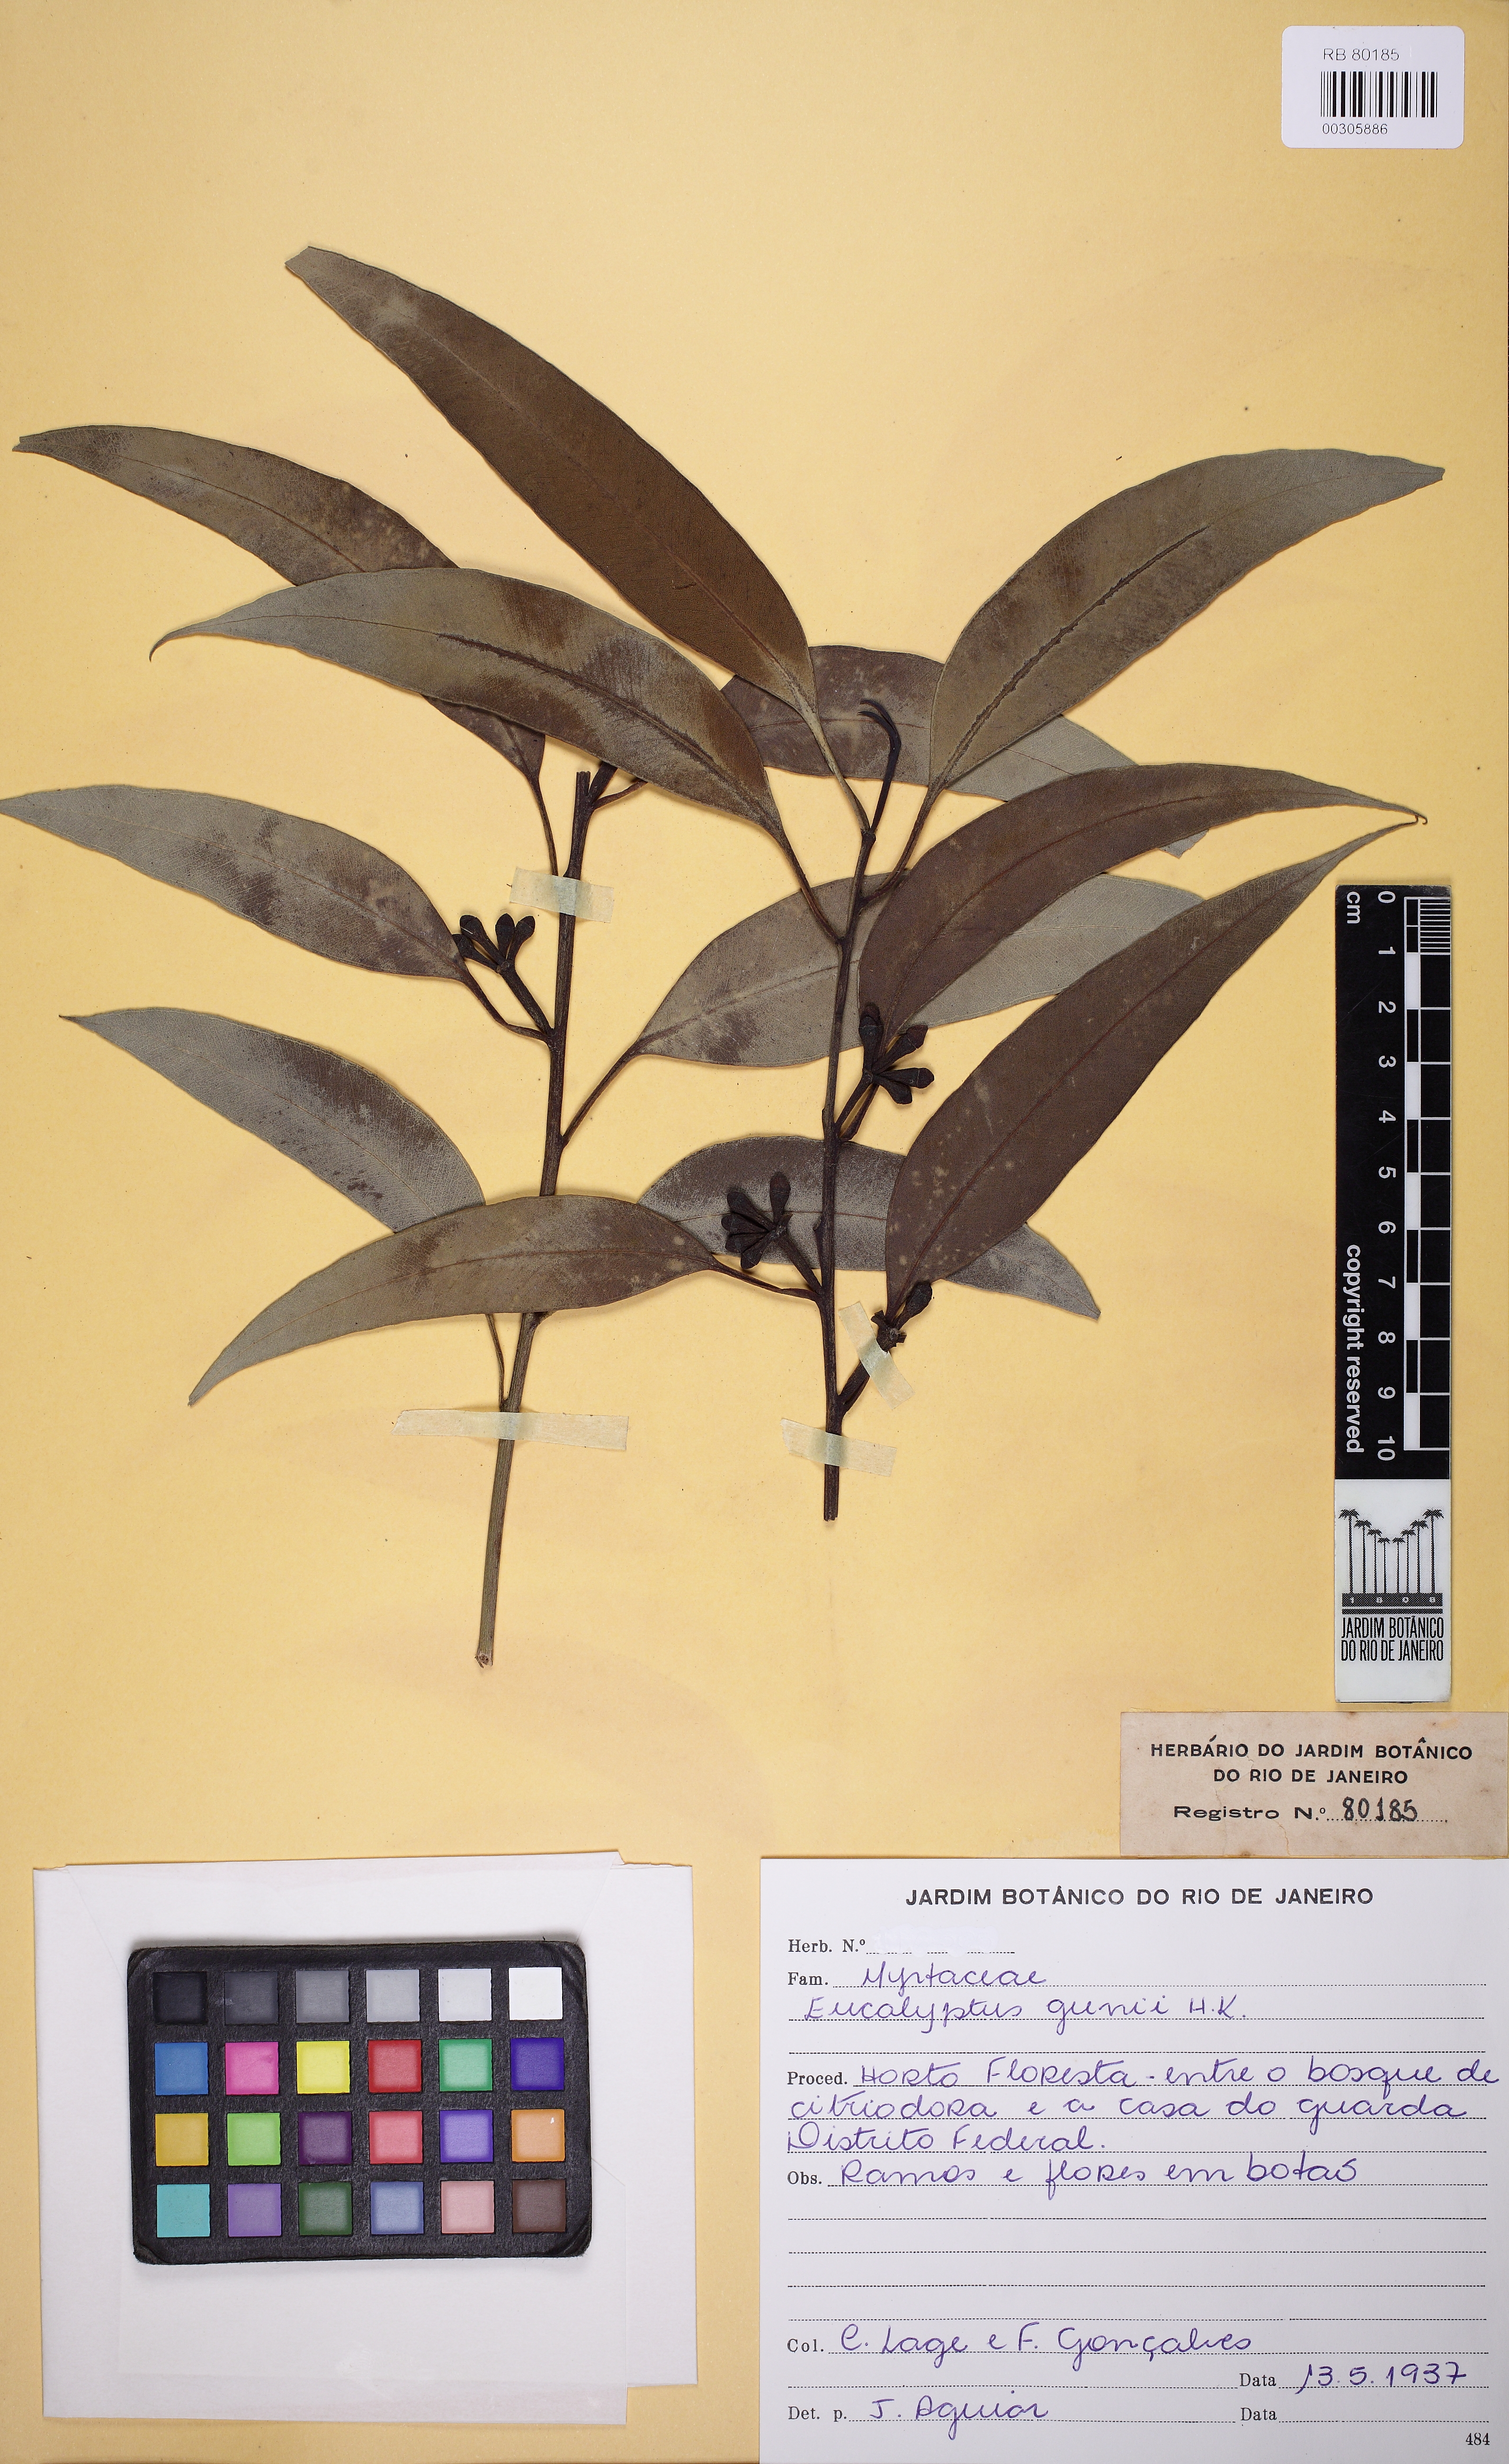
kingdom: Plantae
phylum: Tracheophyta
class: Magnoliopsida
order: Myrtales
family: Myrtaceae
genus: Eucalyptus
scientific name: Eucalyptus gunnii
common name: Cider gum
